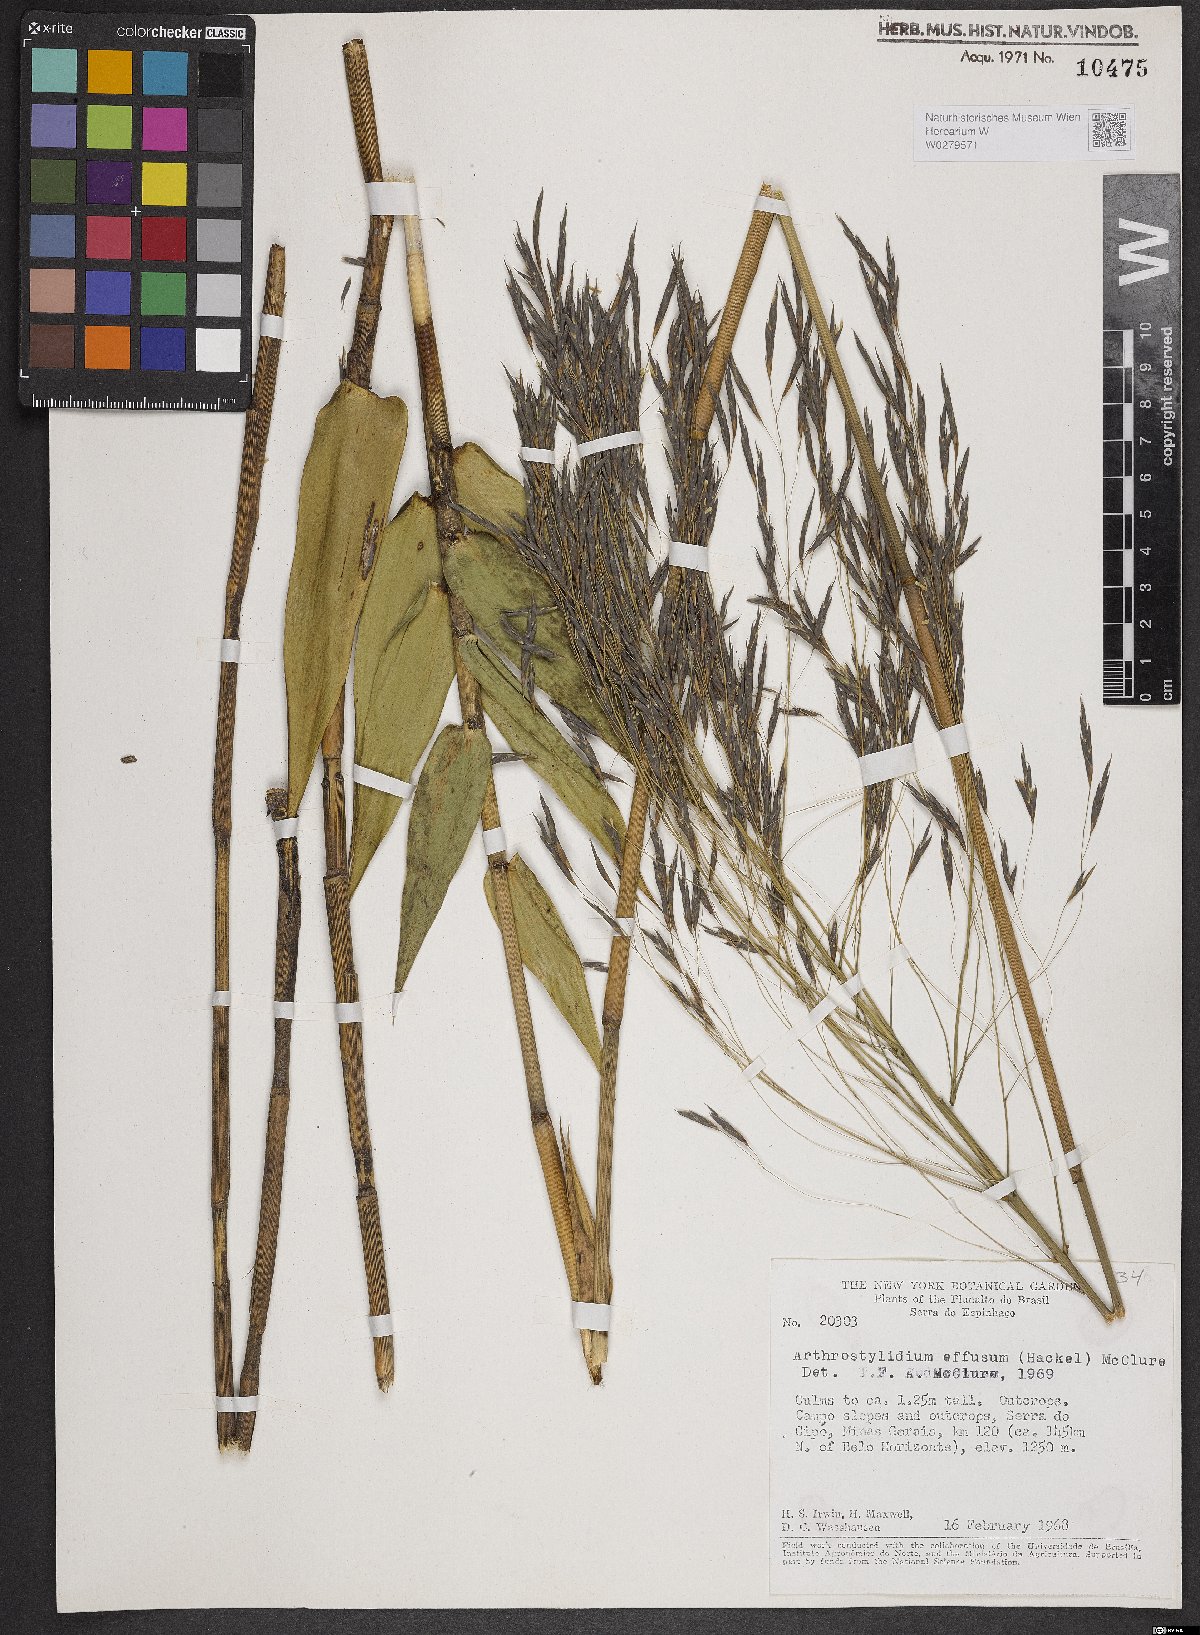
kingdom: Plantae
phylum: Tracheophyta
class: Liliopsida
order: Poales
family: Poaceae
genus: Aulonemia
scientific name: Aulonemia effusa
